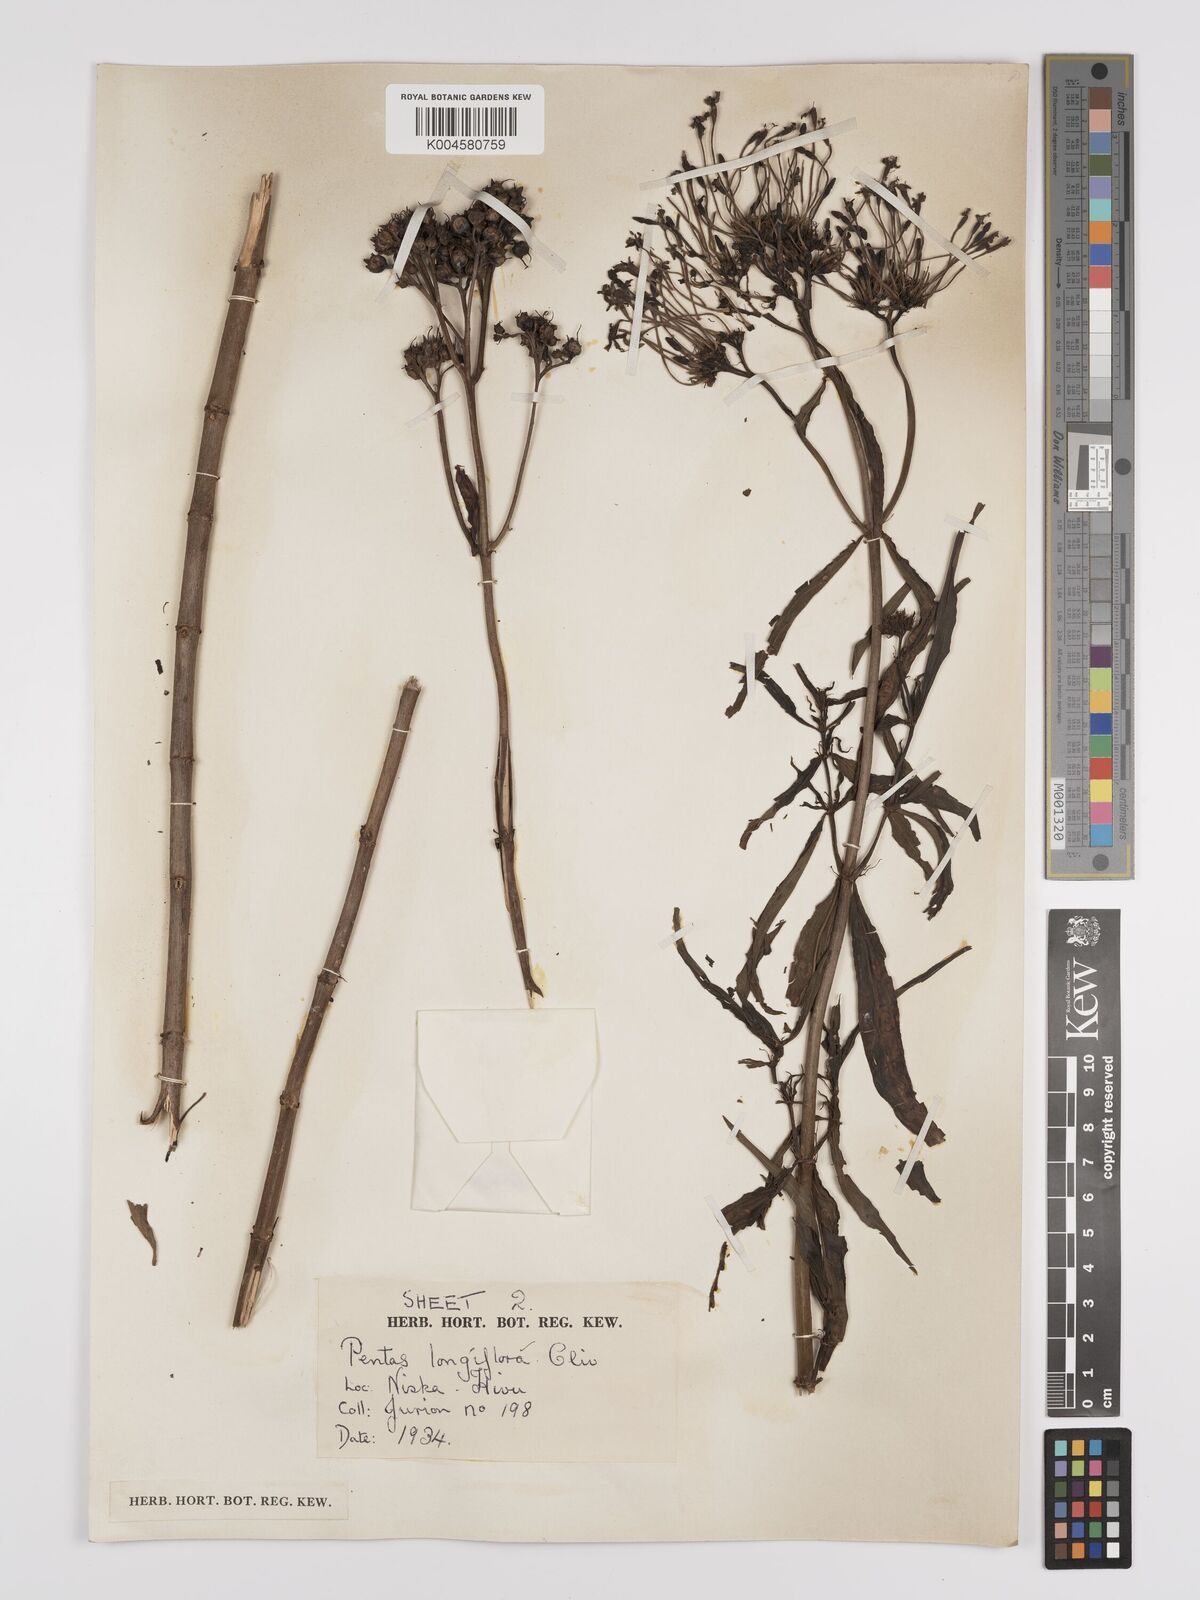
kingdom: Plantae
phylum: Tracheophyta
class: Magnoliopsida
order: Gentianales
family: Rubiaceae
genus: Dolichopentas
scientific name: Dolichopentas longiflora
